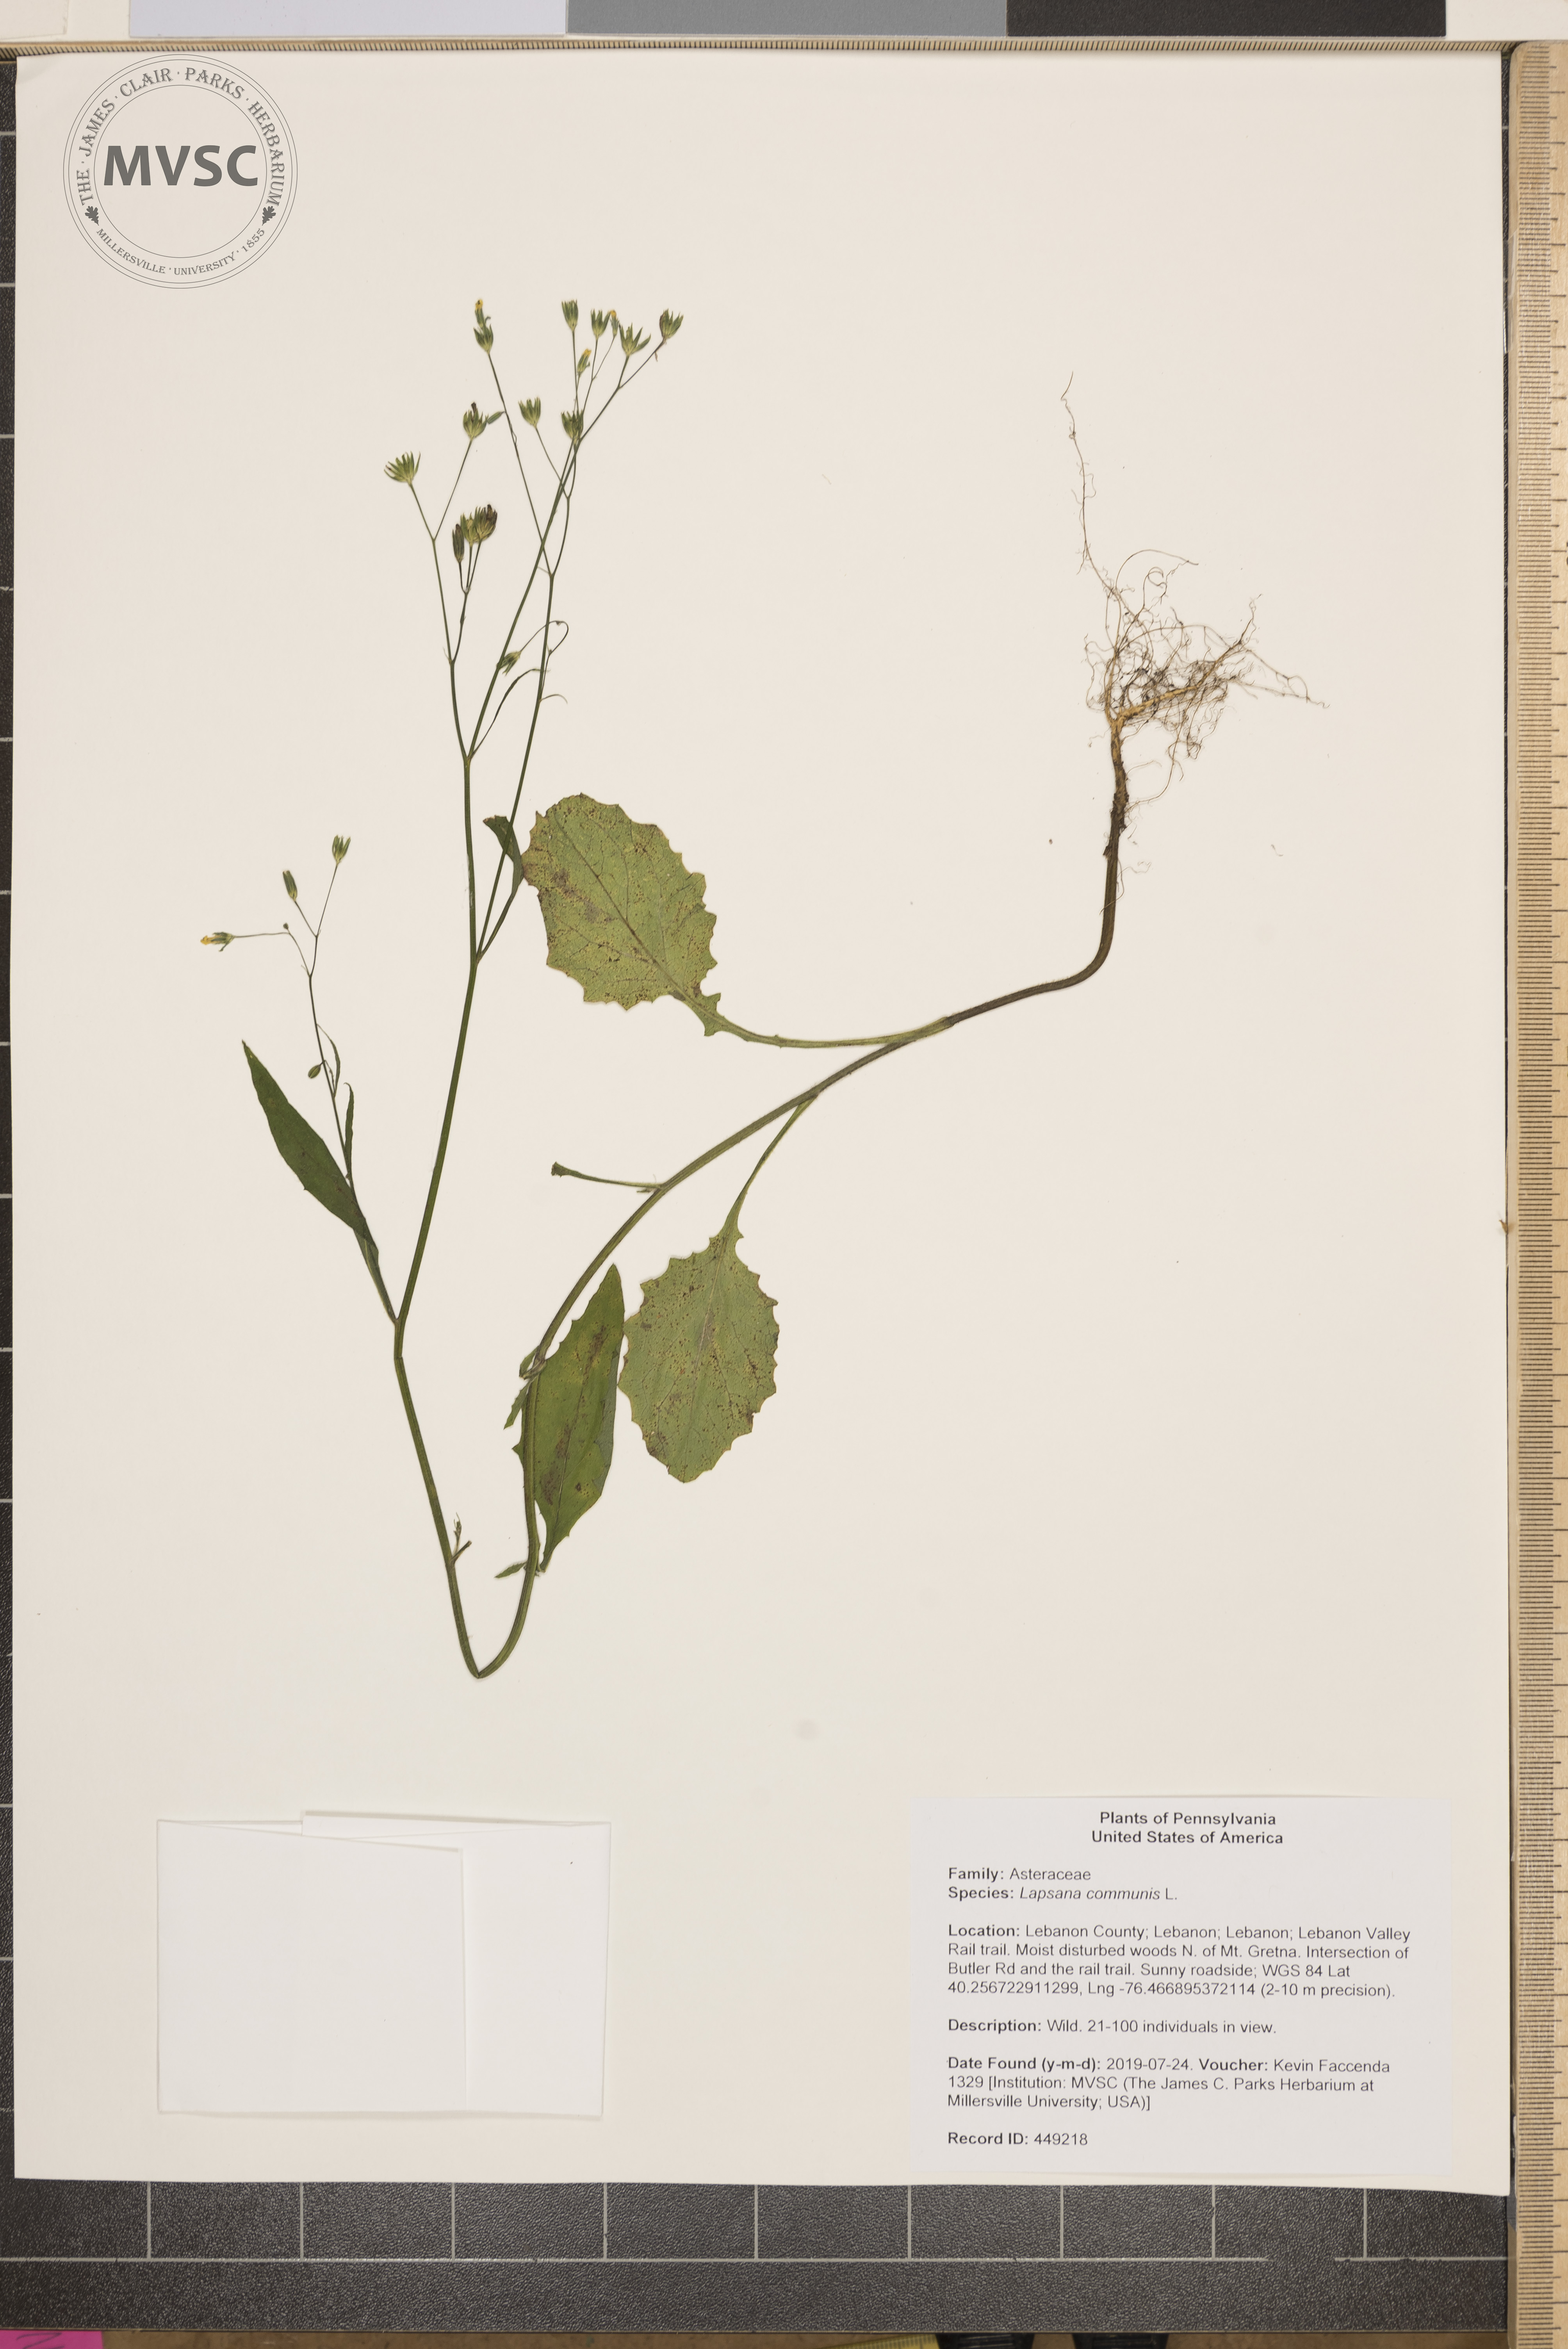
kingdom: Plantae
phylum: Tracheophyta
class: Magnoliopsida
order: Asterales
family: Asteraceae
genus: Lapsana
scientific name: Lapsana communis
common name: Nipplewort
